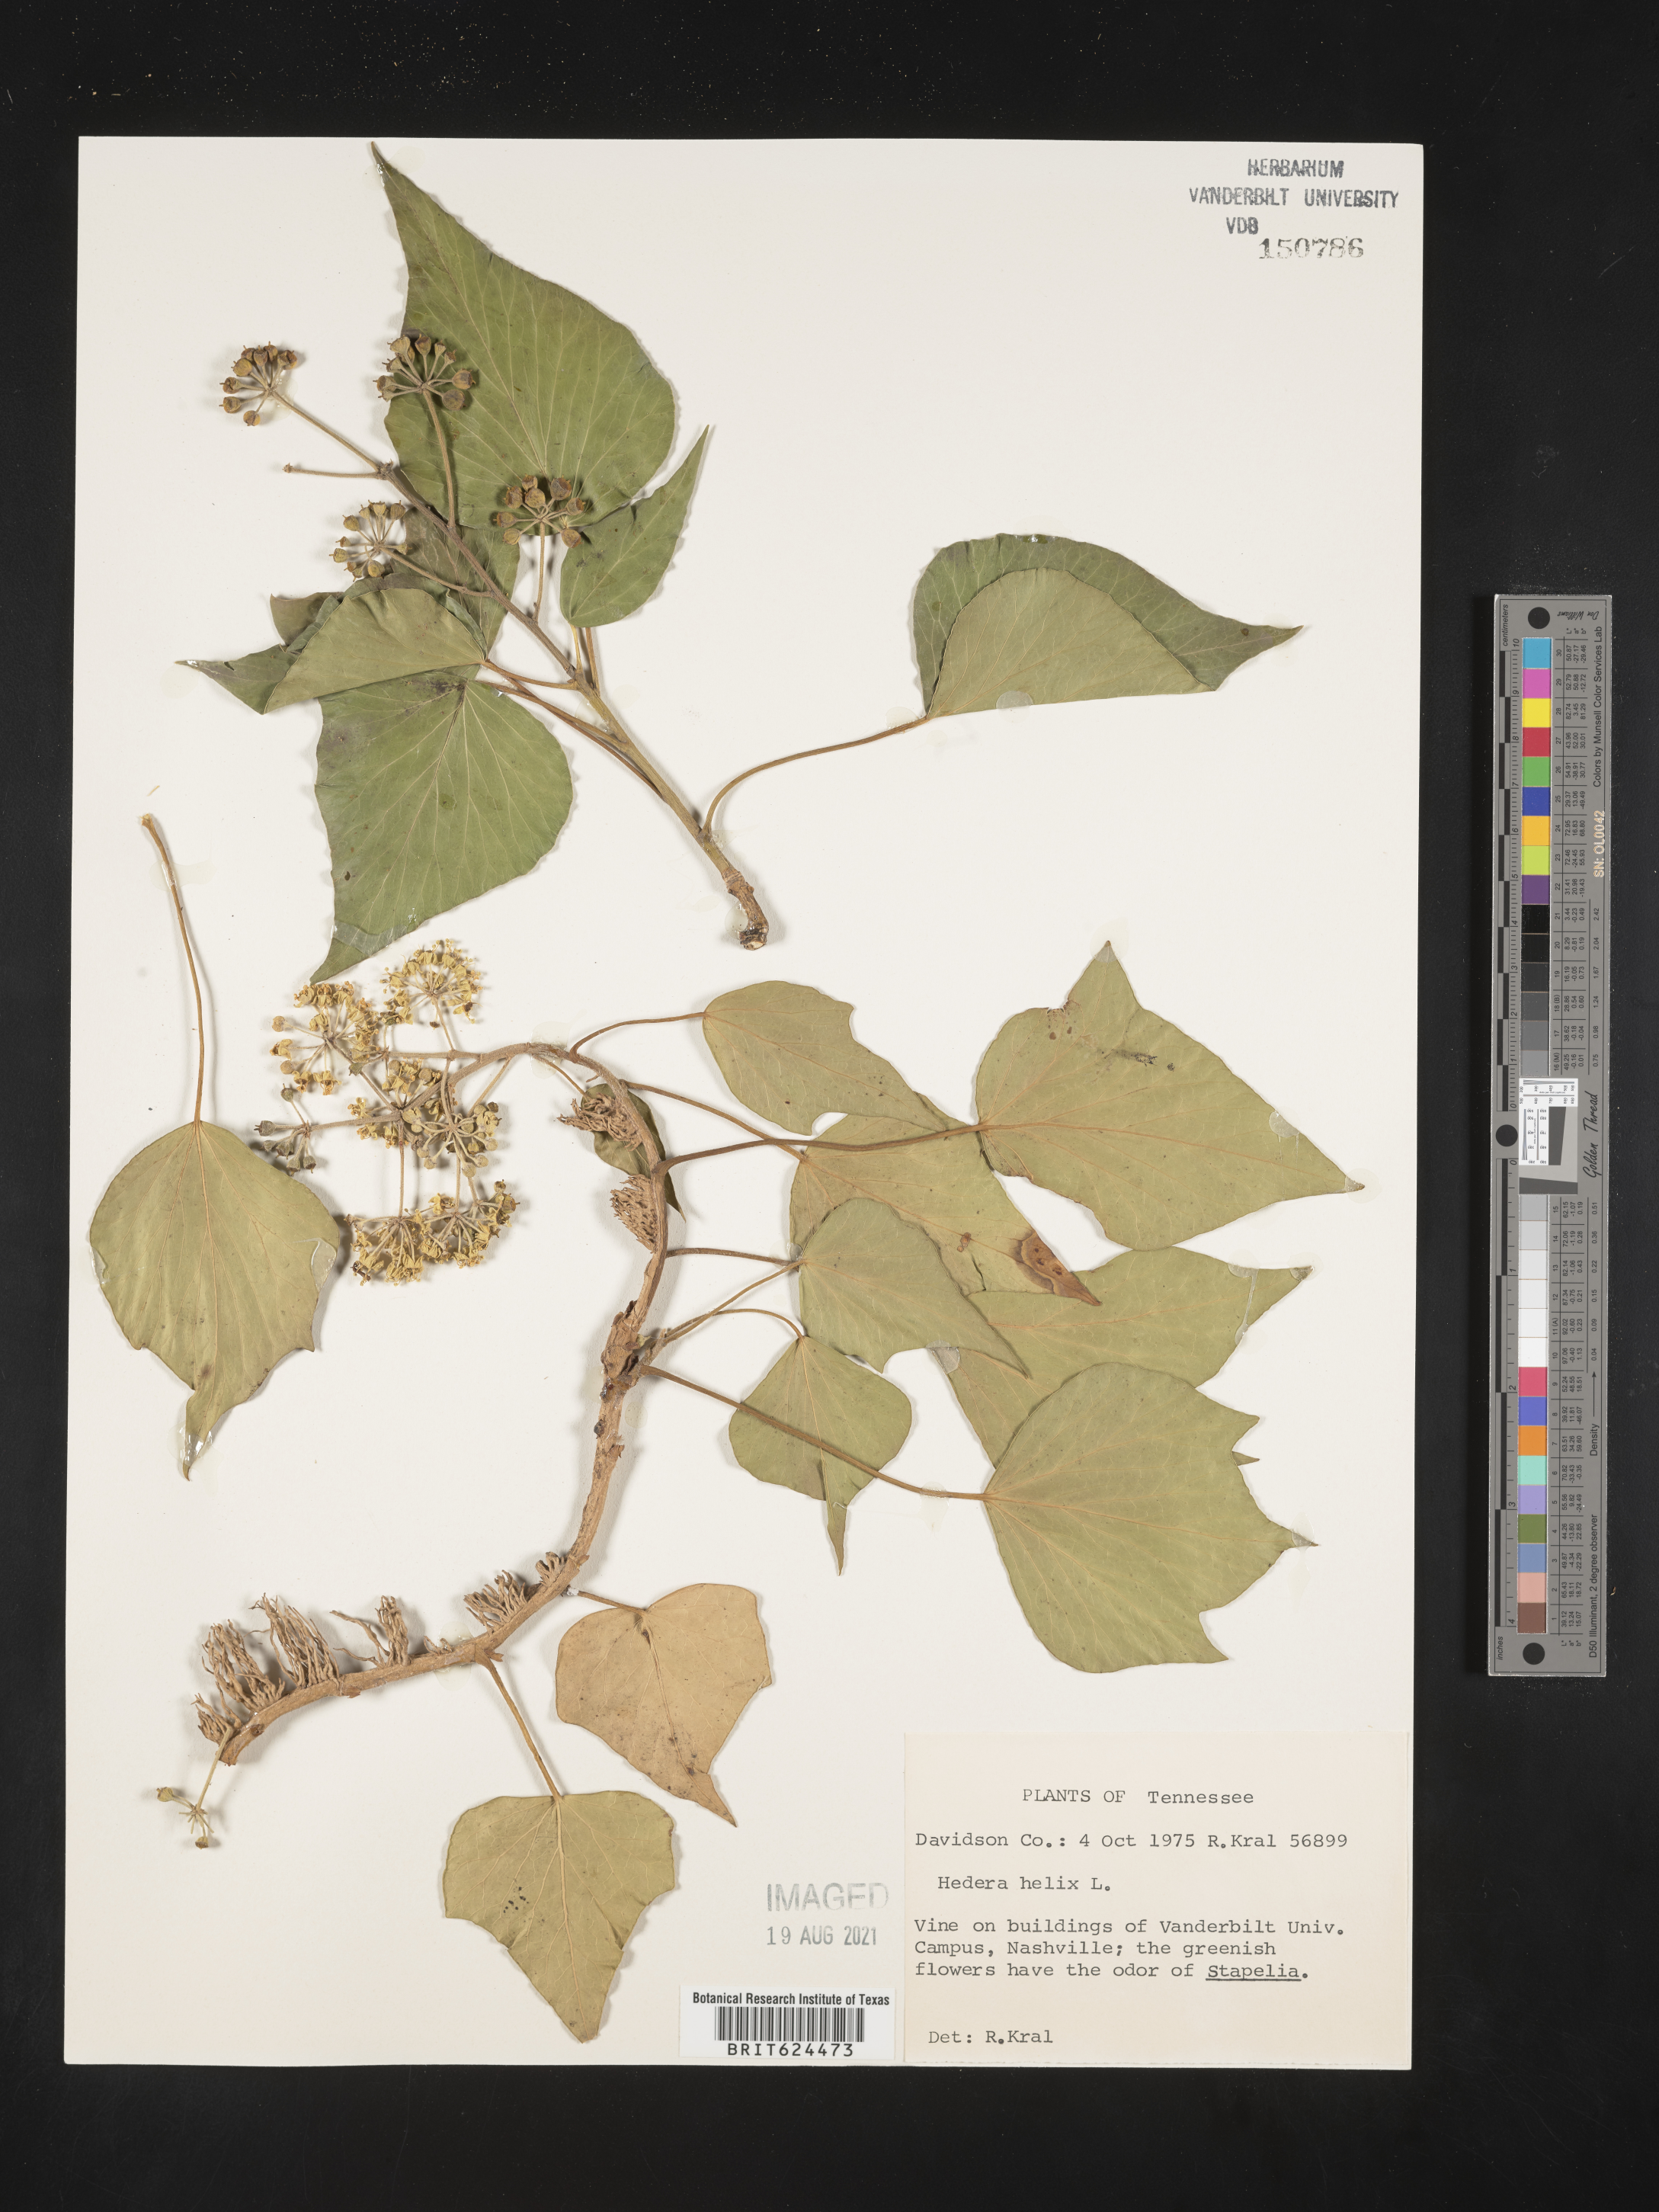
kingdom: Plantae
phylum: Tracheophyta
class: Magnoliopsida
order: Apiales
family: Araliaceae
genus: Hedera
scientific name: Hedera helix
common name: Ivy
